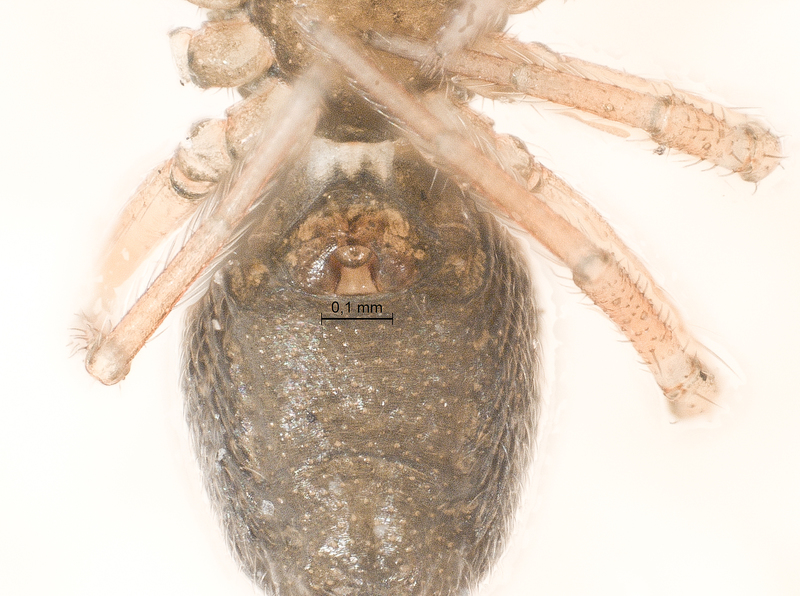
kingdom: Animalia
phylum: Arthropoda
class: Arachnida
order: Araneae
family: Linyphiidae
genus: Typhochrestus
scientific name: Typhochrestus digitatus
